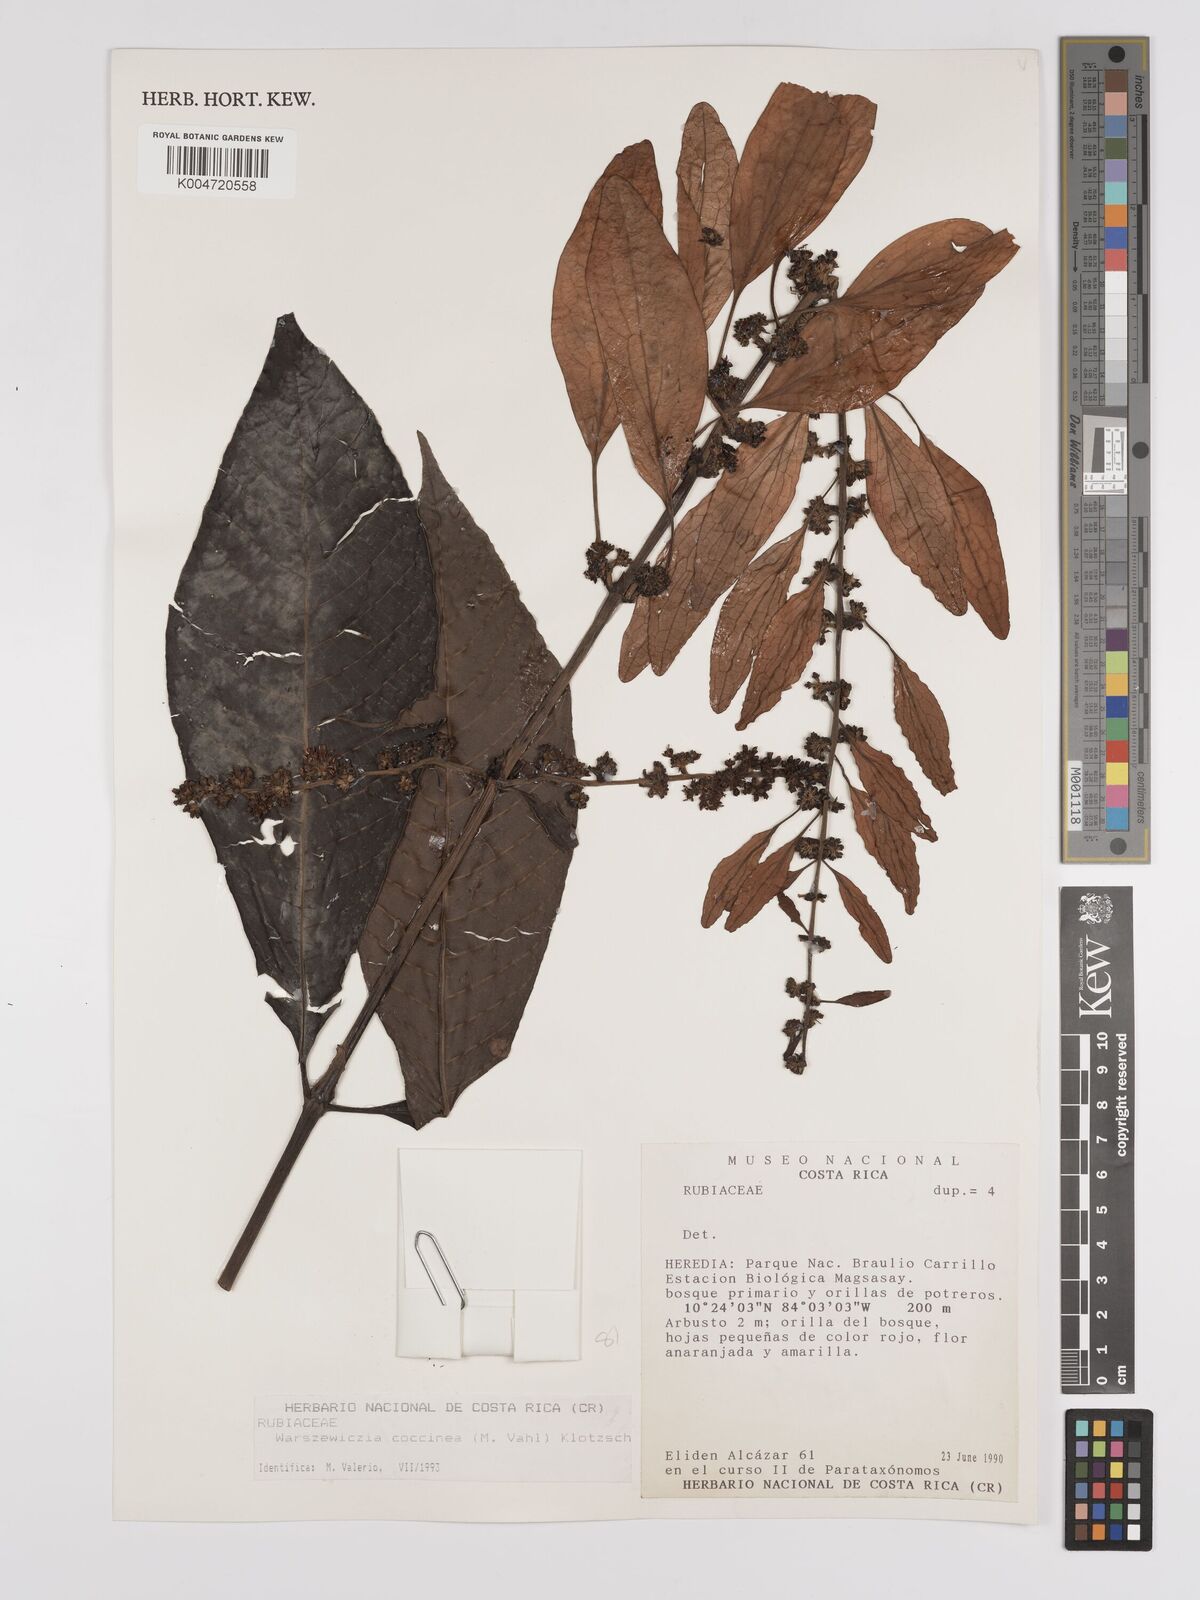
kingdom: Plantae
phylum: Tracheophyta
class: Magnoliopsida
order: Gentianales
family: Rubiaceae
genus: Warszewiczia
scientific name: Warszewiczia coccinea
